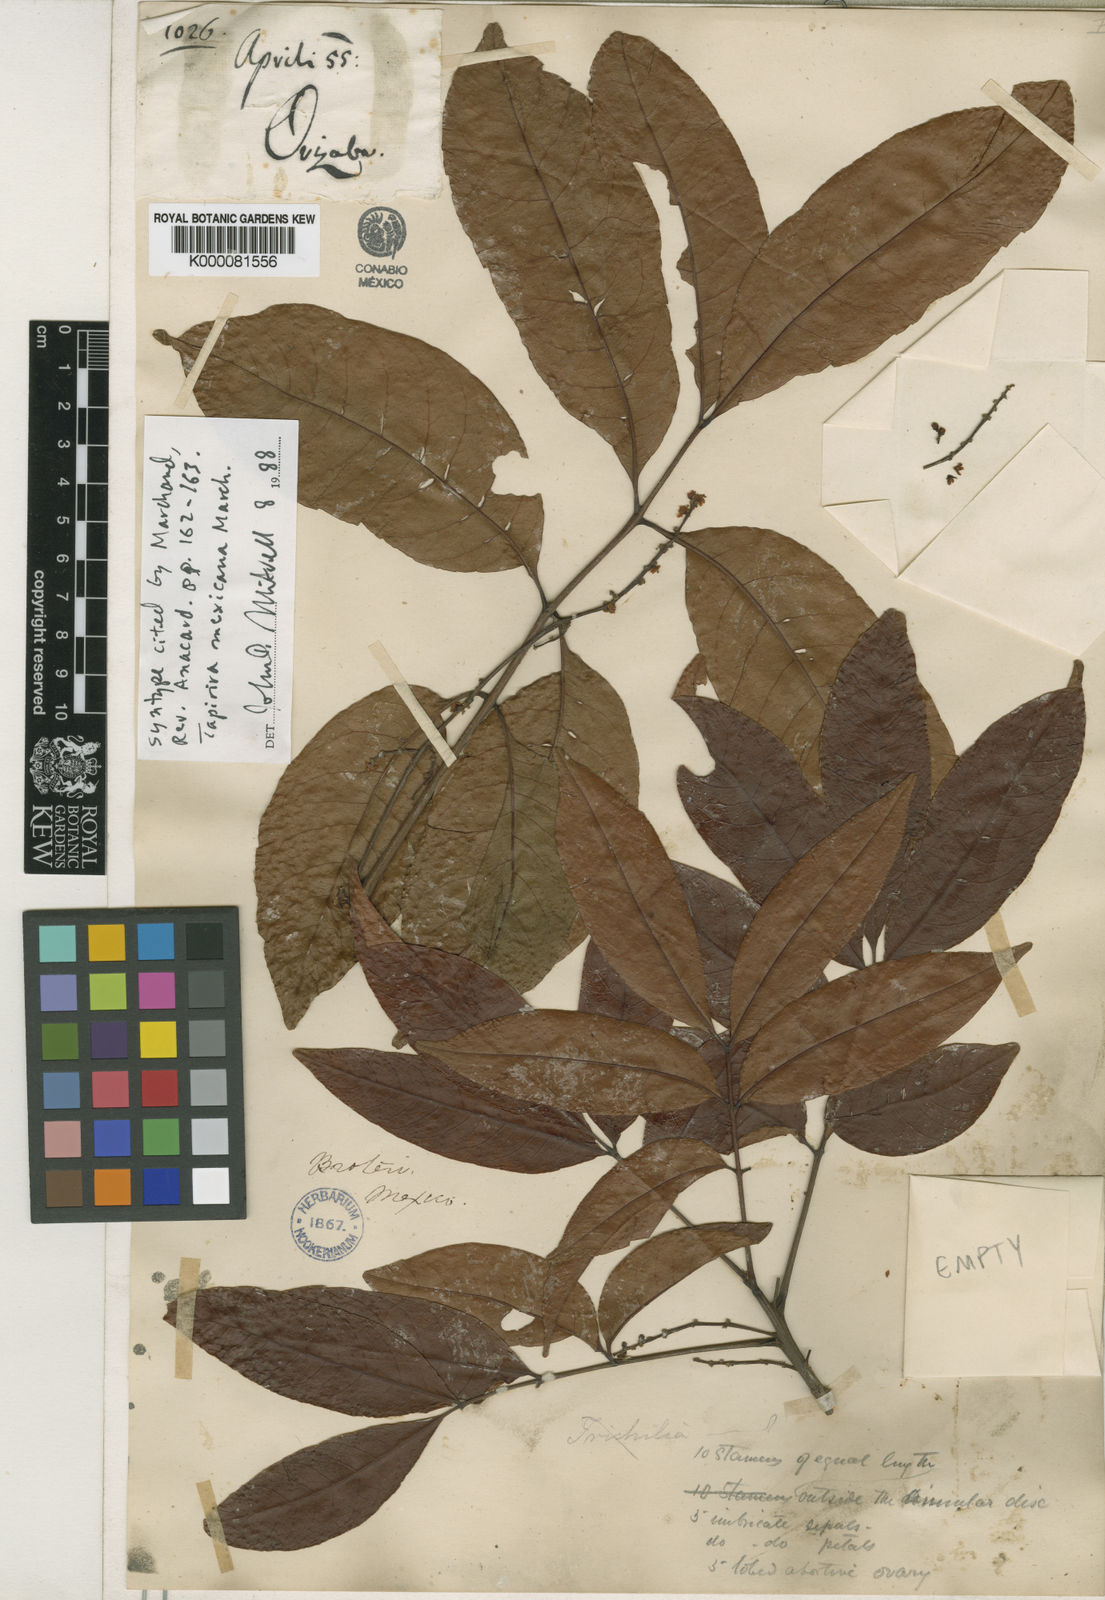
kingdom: Plantae
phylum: Tracheophyta
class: Magnoliopsida
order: Sapindales
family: Anacardiaceae
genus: Tapirira
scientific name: Tapirira mexicana
